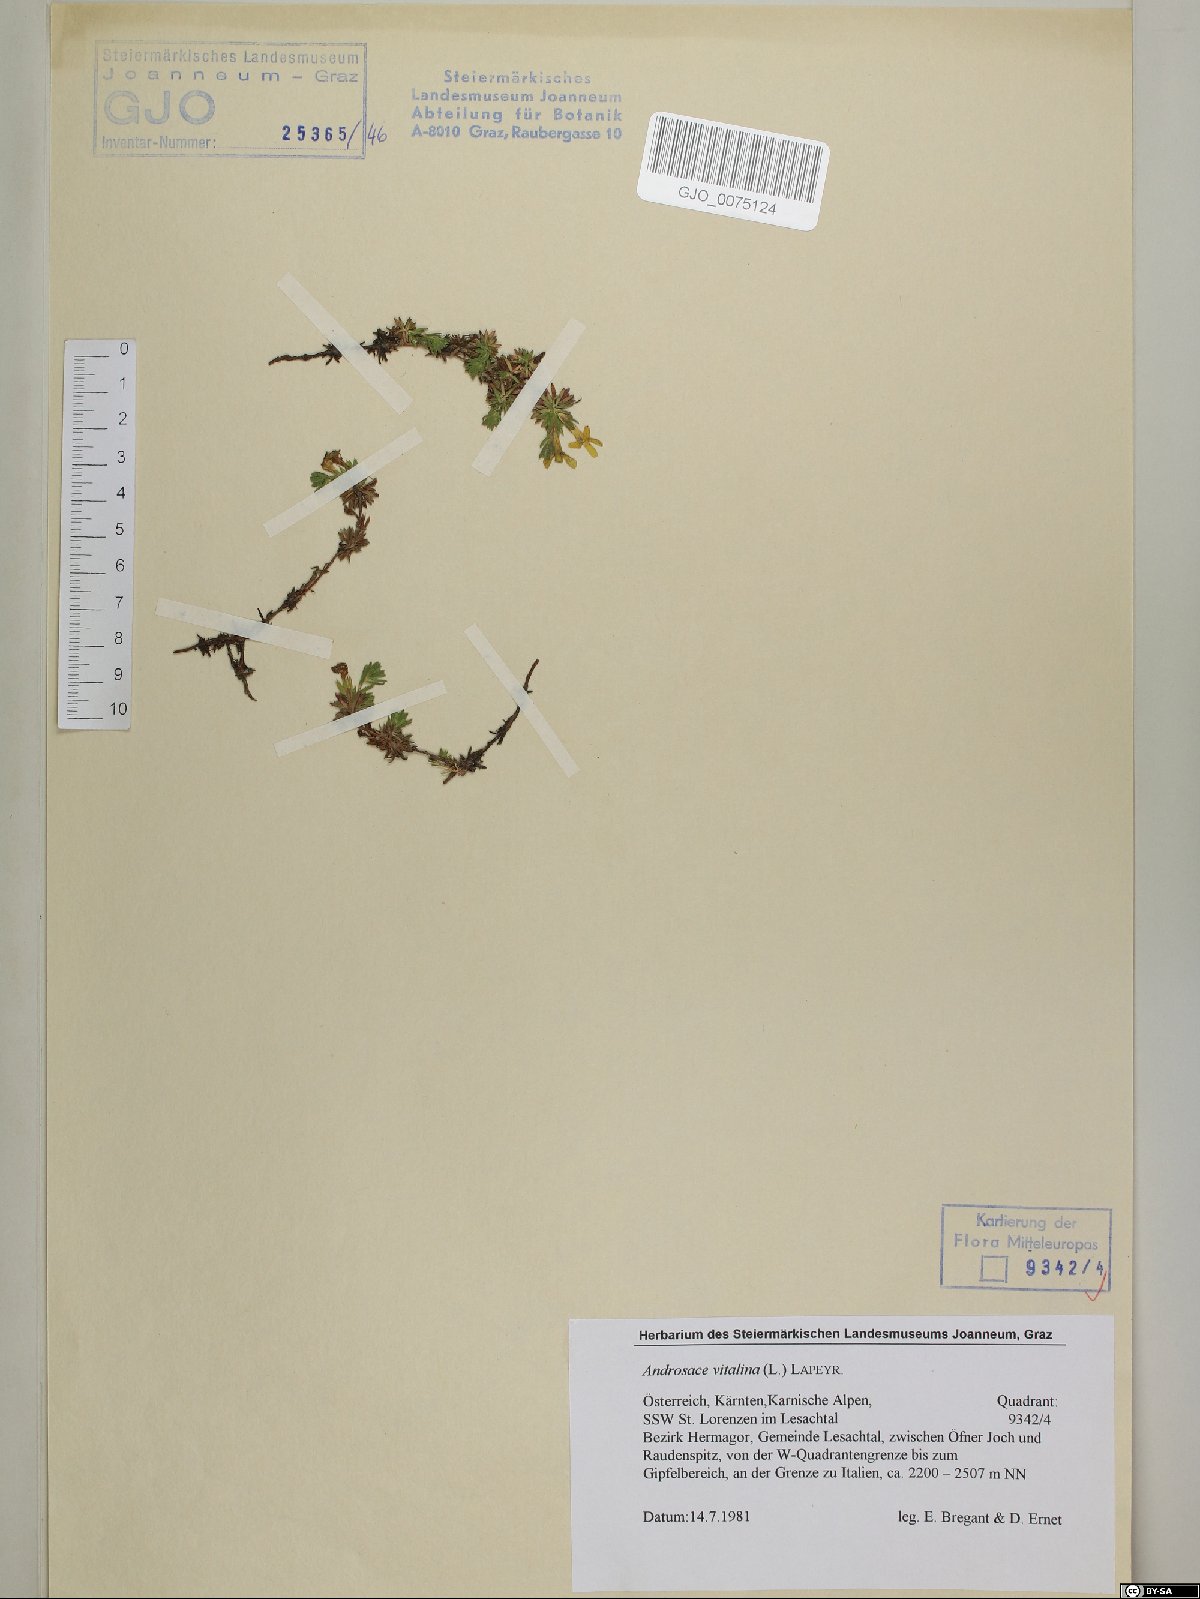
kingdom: Plantae
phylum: Tracheophyta
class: Magnoliopsida
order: Ericales
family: Primulaceae
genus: Androsace
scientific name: Androsace vitaliana
